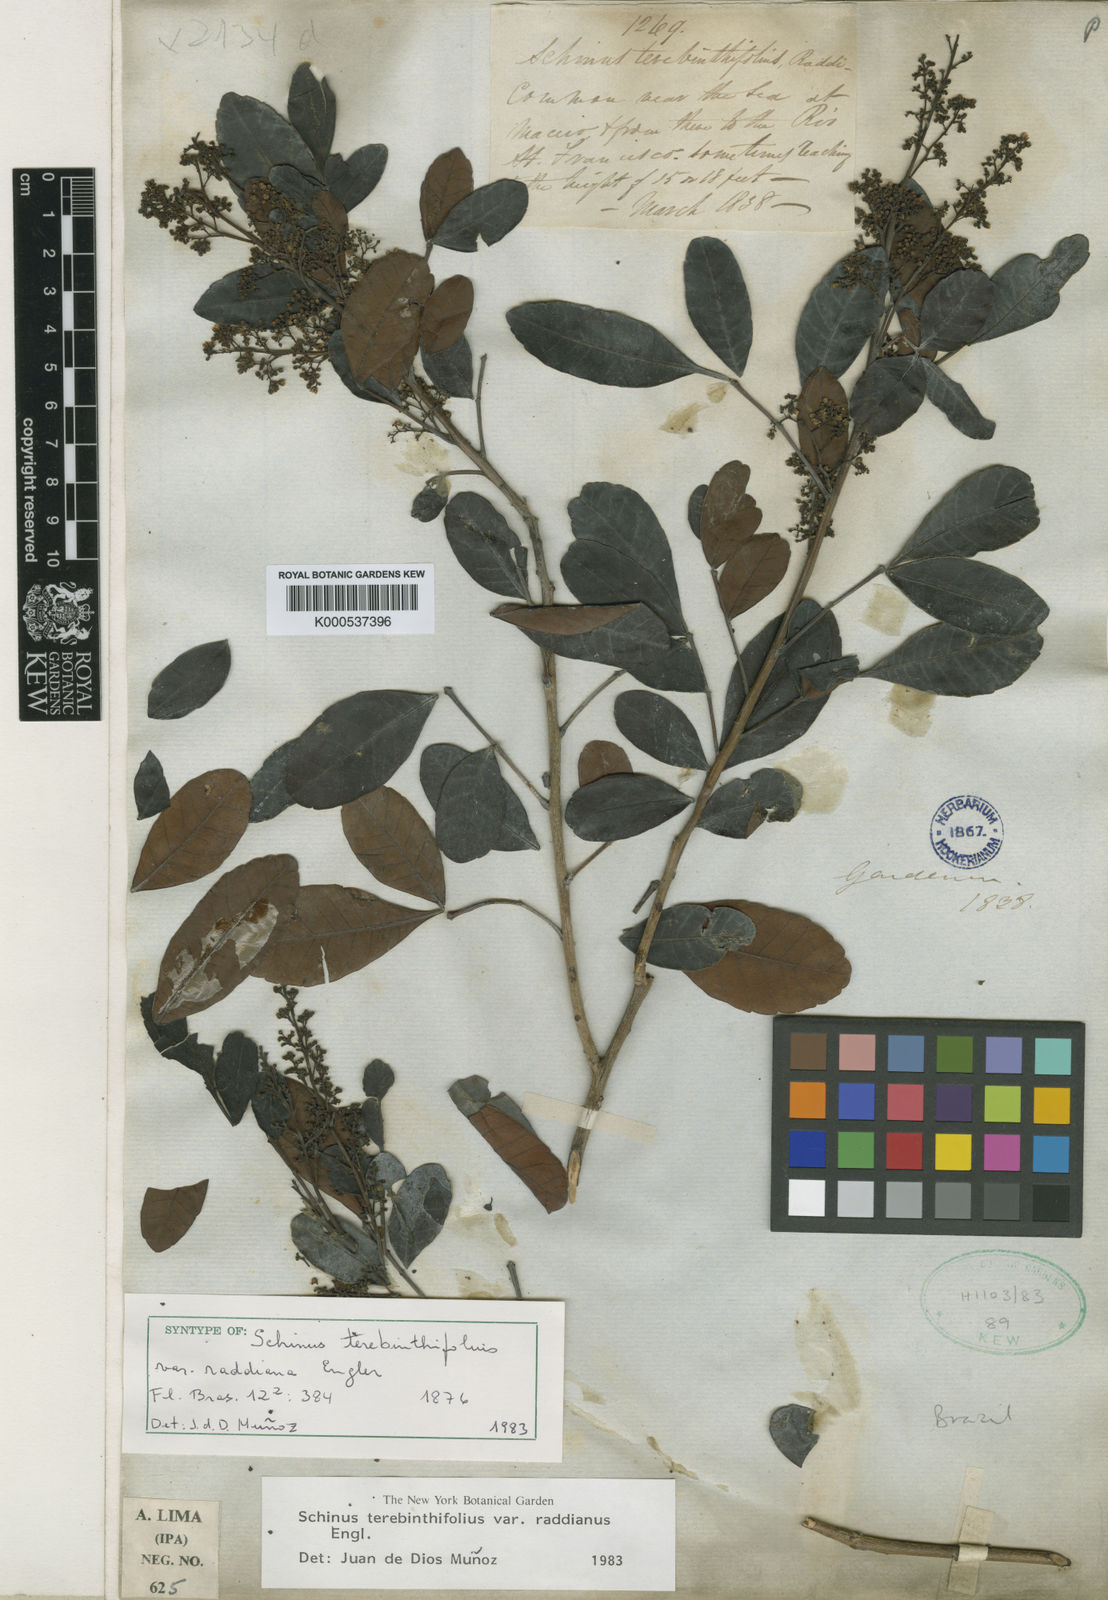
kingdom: Plantae
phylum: Tracheophyta
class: Magnoliopsida
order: Sapindales
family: Anacardiaceae
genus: Schinus
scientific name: Schinus terebinthifolia
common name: Brazilian peppertree
